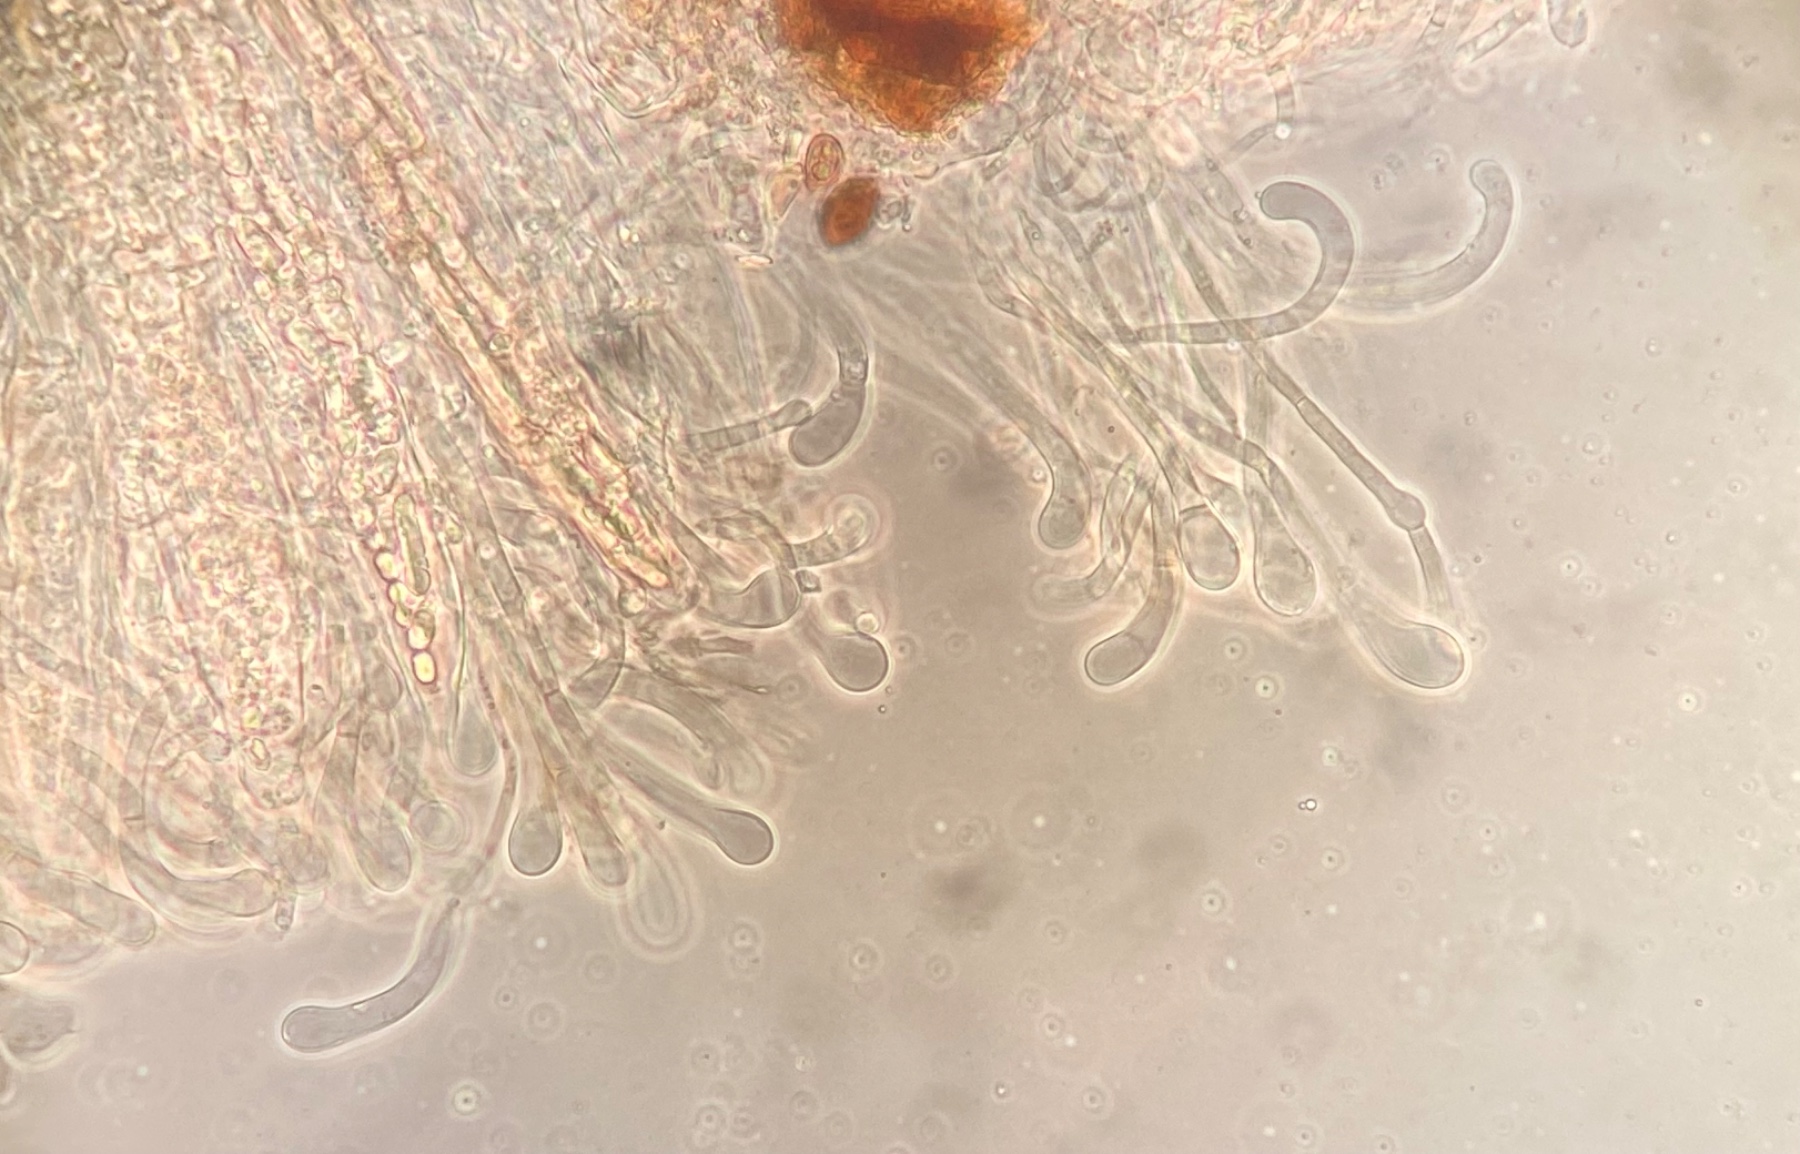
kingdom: Fungi
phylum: Ascomycota
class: Geoglossomycetes
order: Geoglossales
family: Geoglossaceae
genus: Geoglossum
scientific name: Geoglossum fallax
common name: småskællet jordtunge
